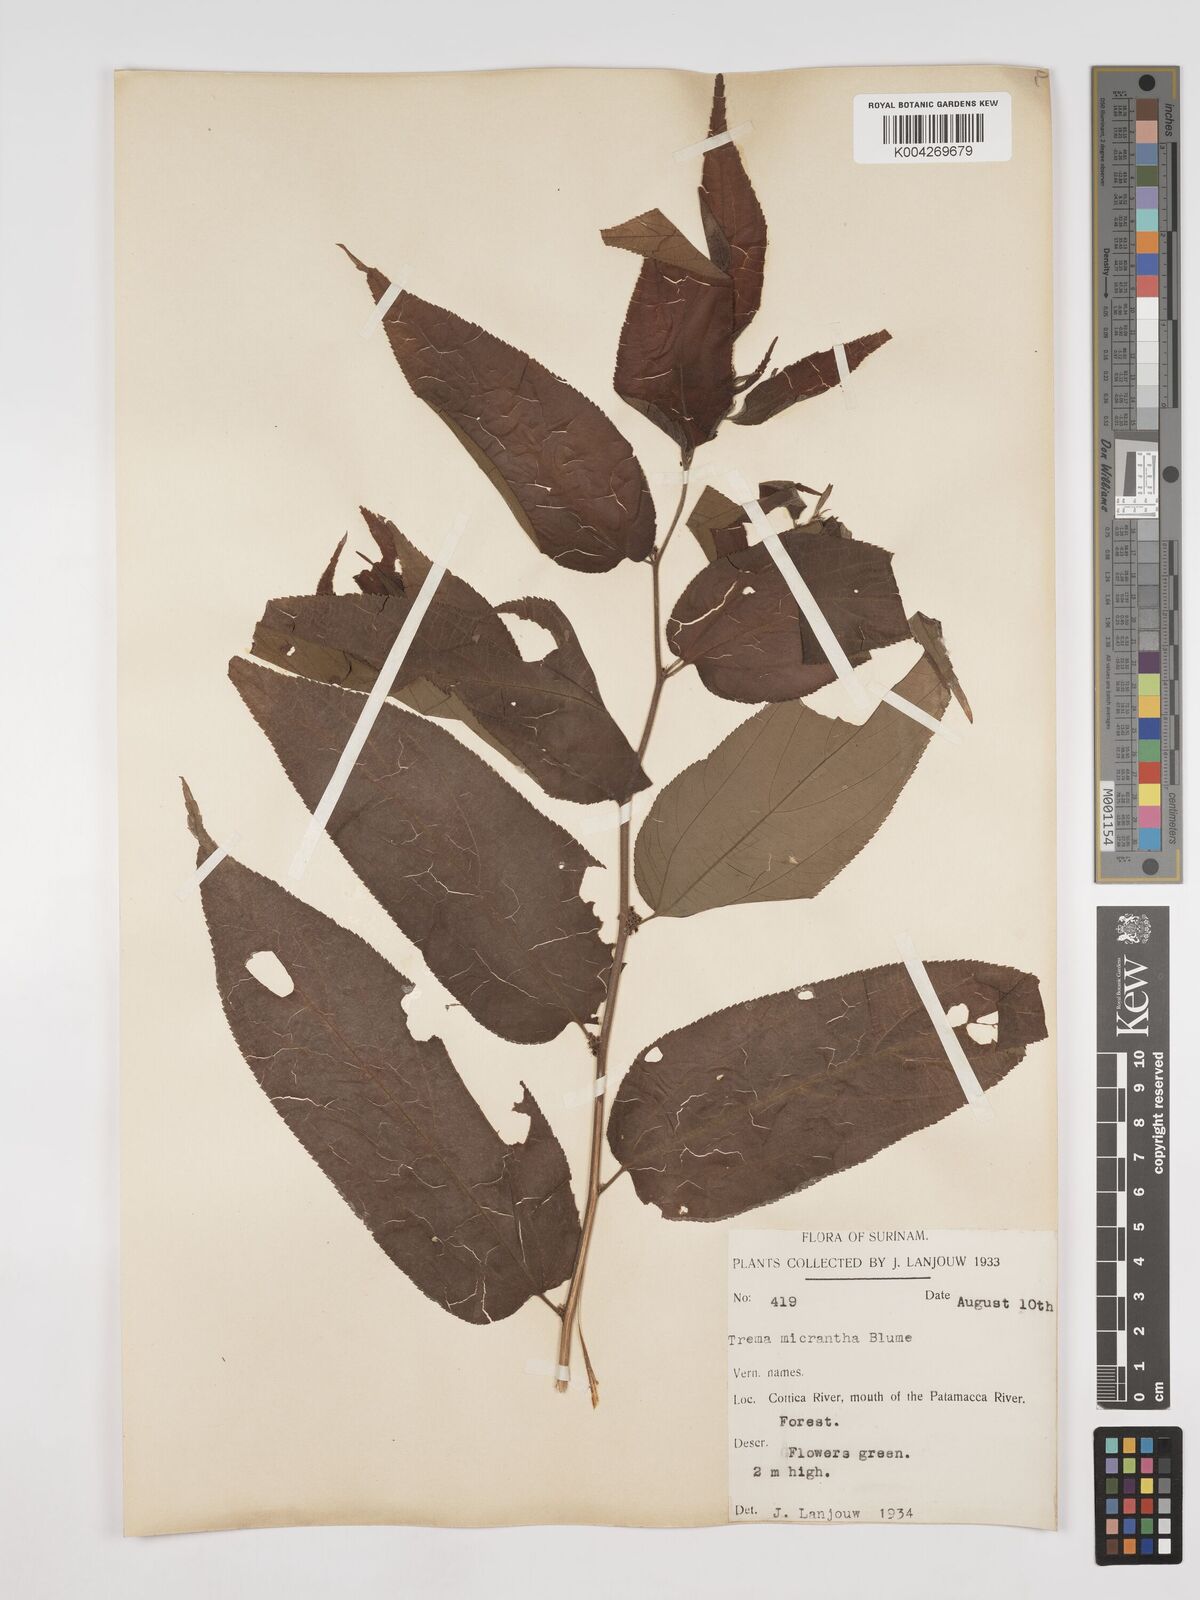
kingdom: Plantae
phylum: Tracheophyta
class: Magnoliopsida
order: Rosales
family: Cannabaceae
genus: Trema
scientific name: Trema micranthum
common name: Jamaican nettletree
